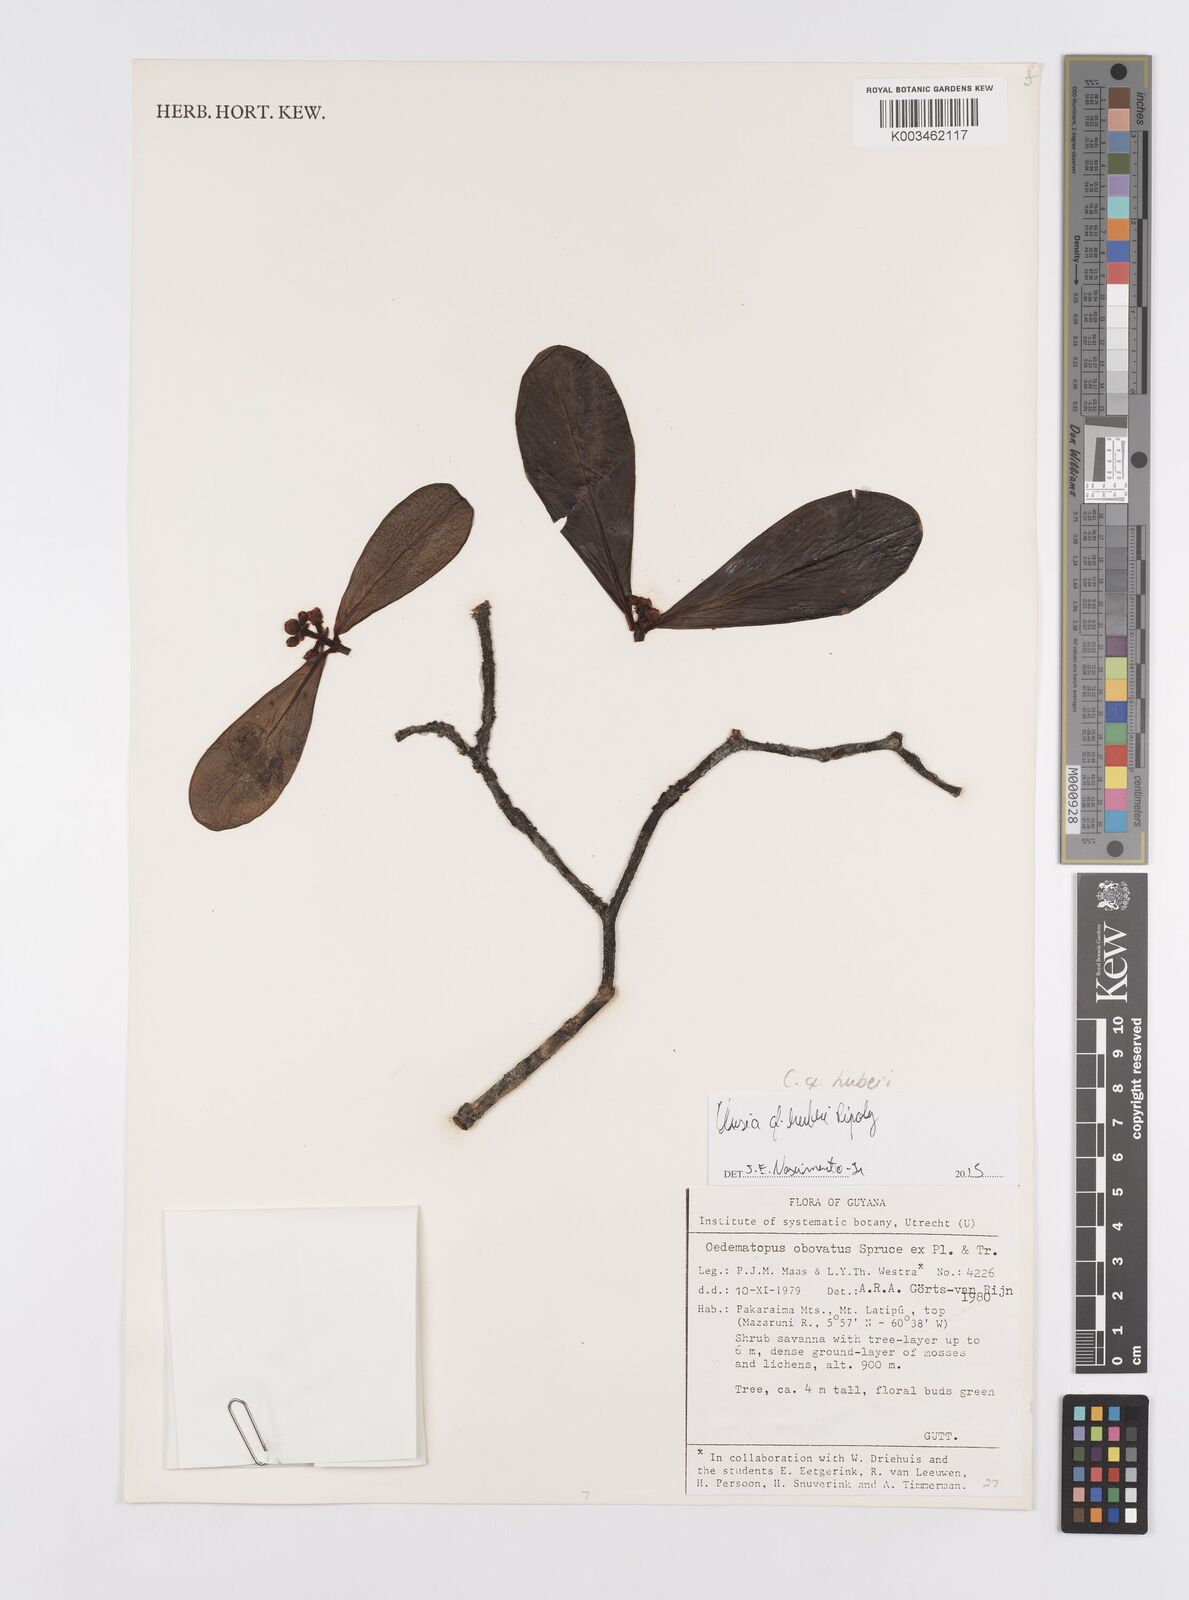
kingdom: Plantae
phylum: Tracheophyta
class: Magnoliopsida
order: Malpighiales
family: Clusiaceae
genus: Clusia
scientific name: Clusia huberi
